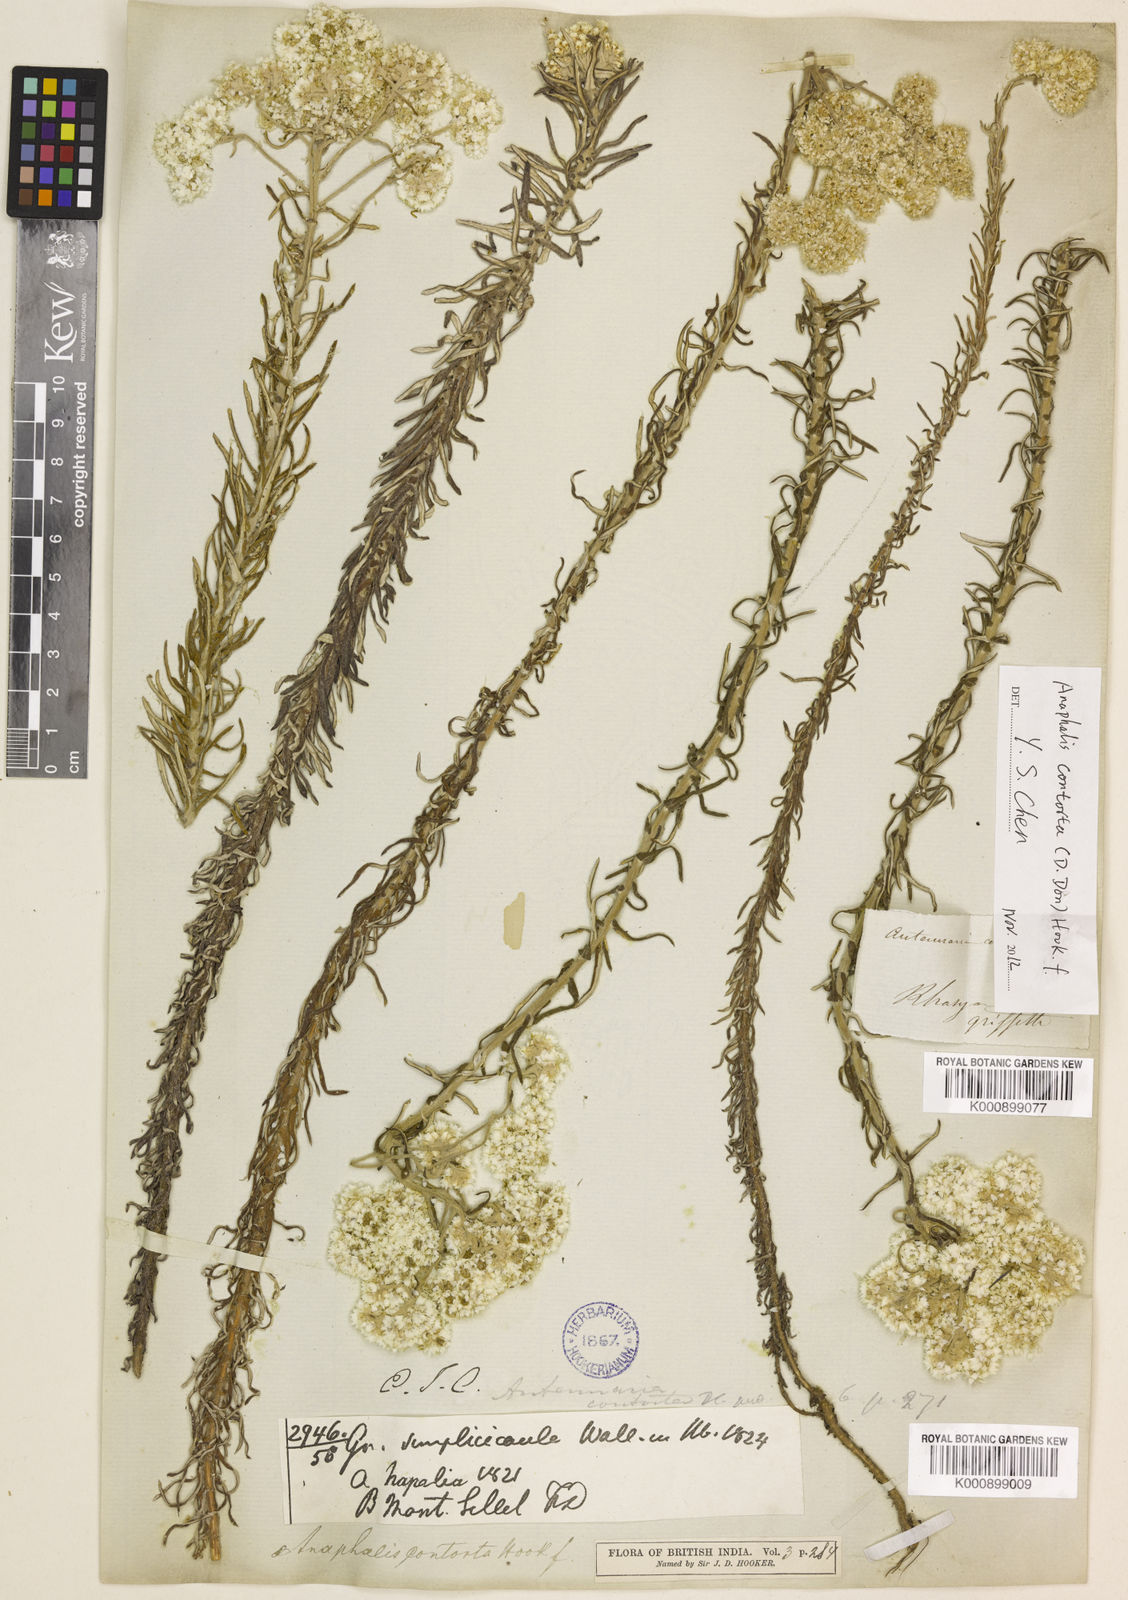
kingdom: Plantae
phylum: Tracheophyta
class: Magnoliopsida
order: Asterales
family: Asteraceae
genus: Anaphalis
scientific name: Anaphalis contorta
